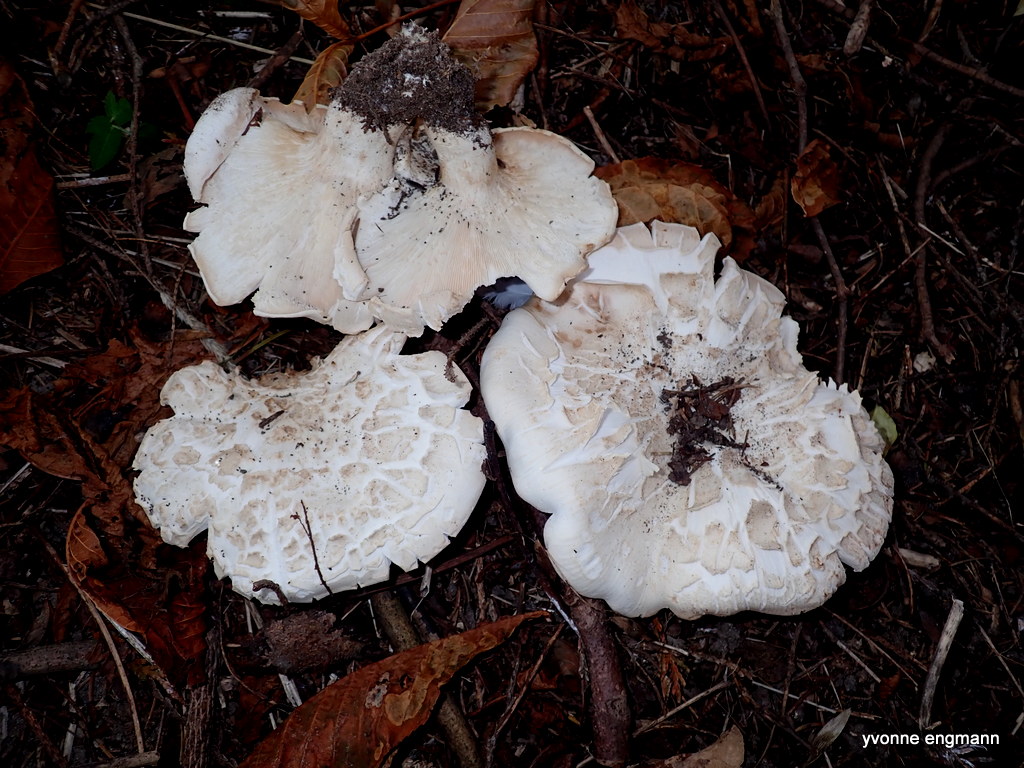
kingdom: Fungi
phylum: Basidiomycota
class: Agaricomycetes
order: Agaricales
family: Tricholomataceae
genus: Aspropaxillus
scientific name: Aspropaxillus giganteus
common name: kæmpe-tragtridderhat
